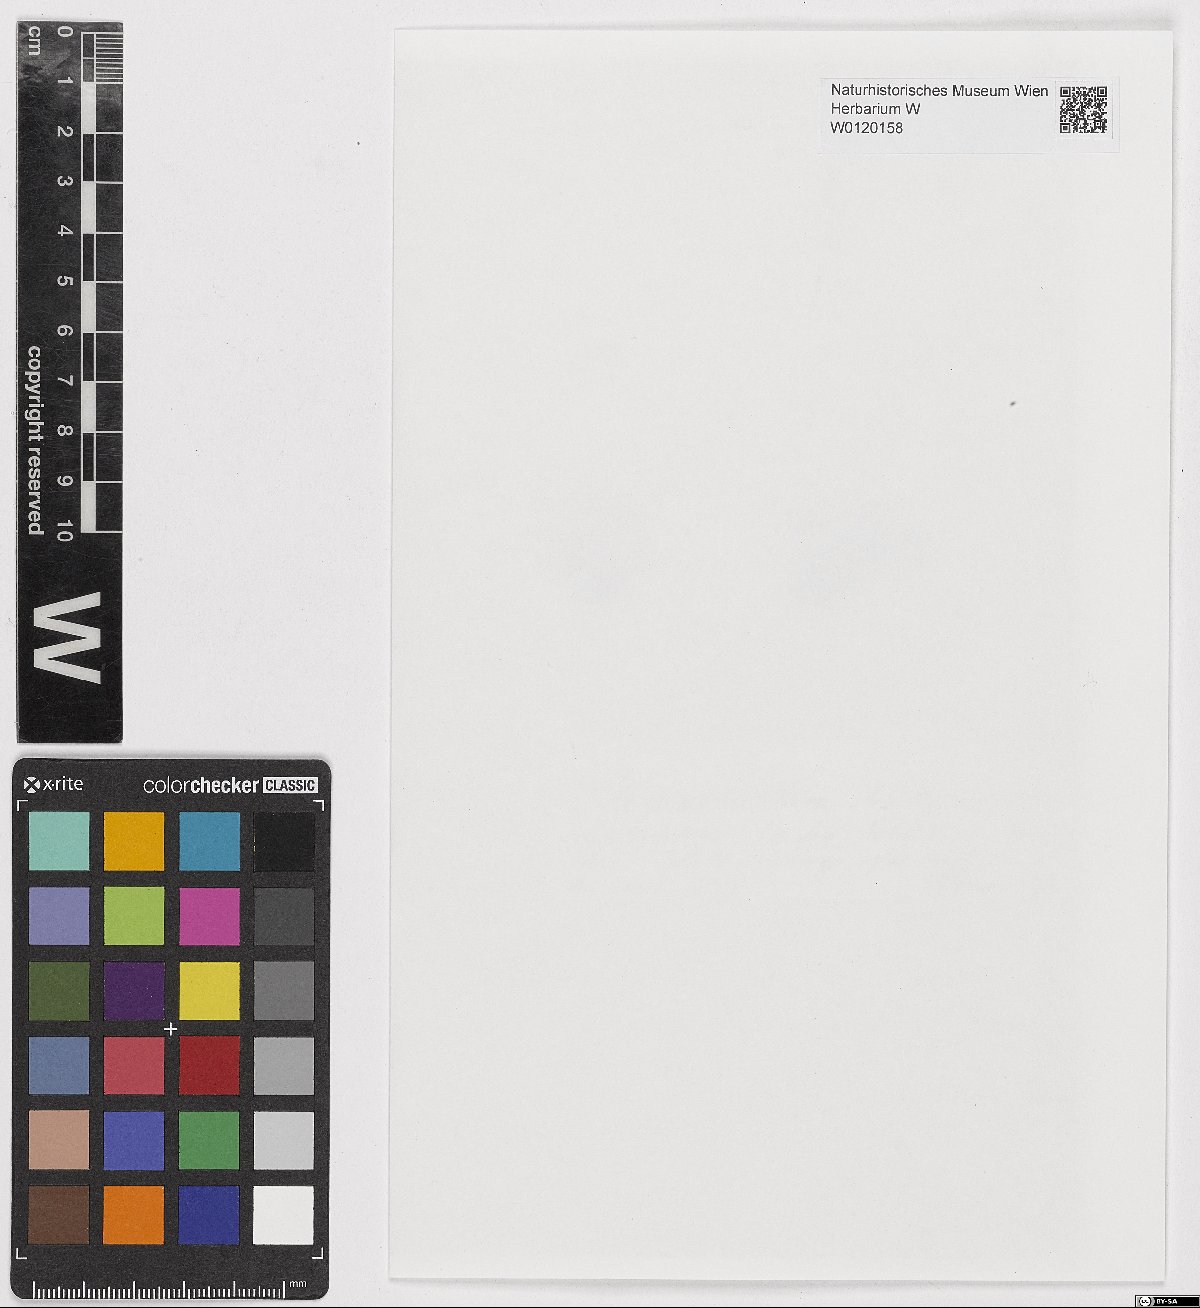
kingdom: Plantae
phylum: Bryophyta
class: Bryopsida
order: Hypnales
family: Plagiotheciaceae
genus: Isopterygiopsis
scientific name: Isopterygiopsis muelleriana
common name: Mueller's silk moss
